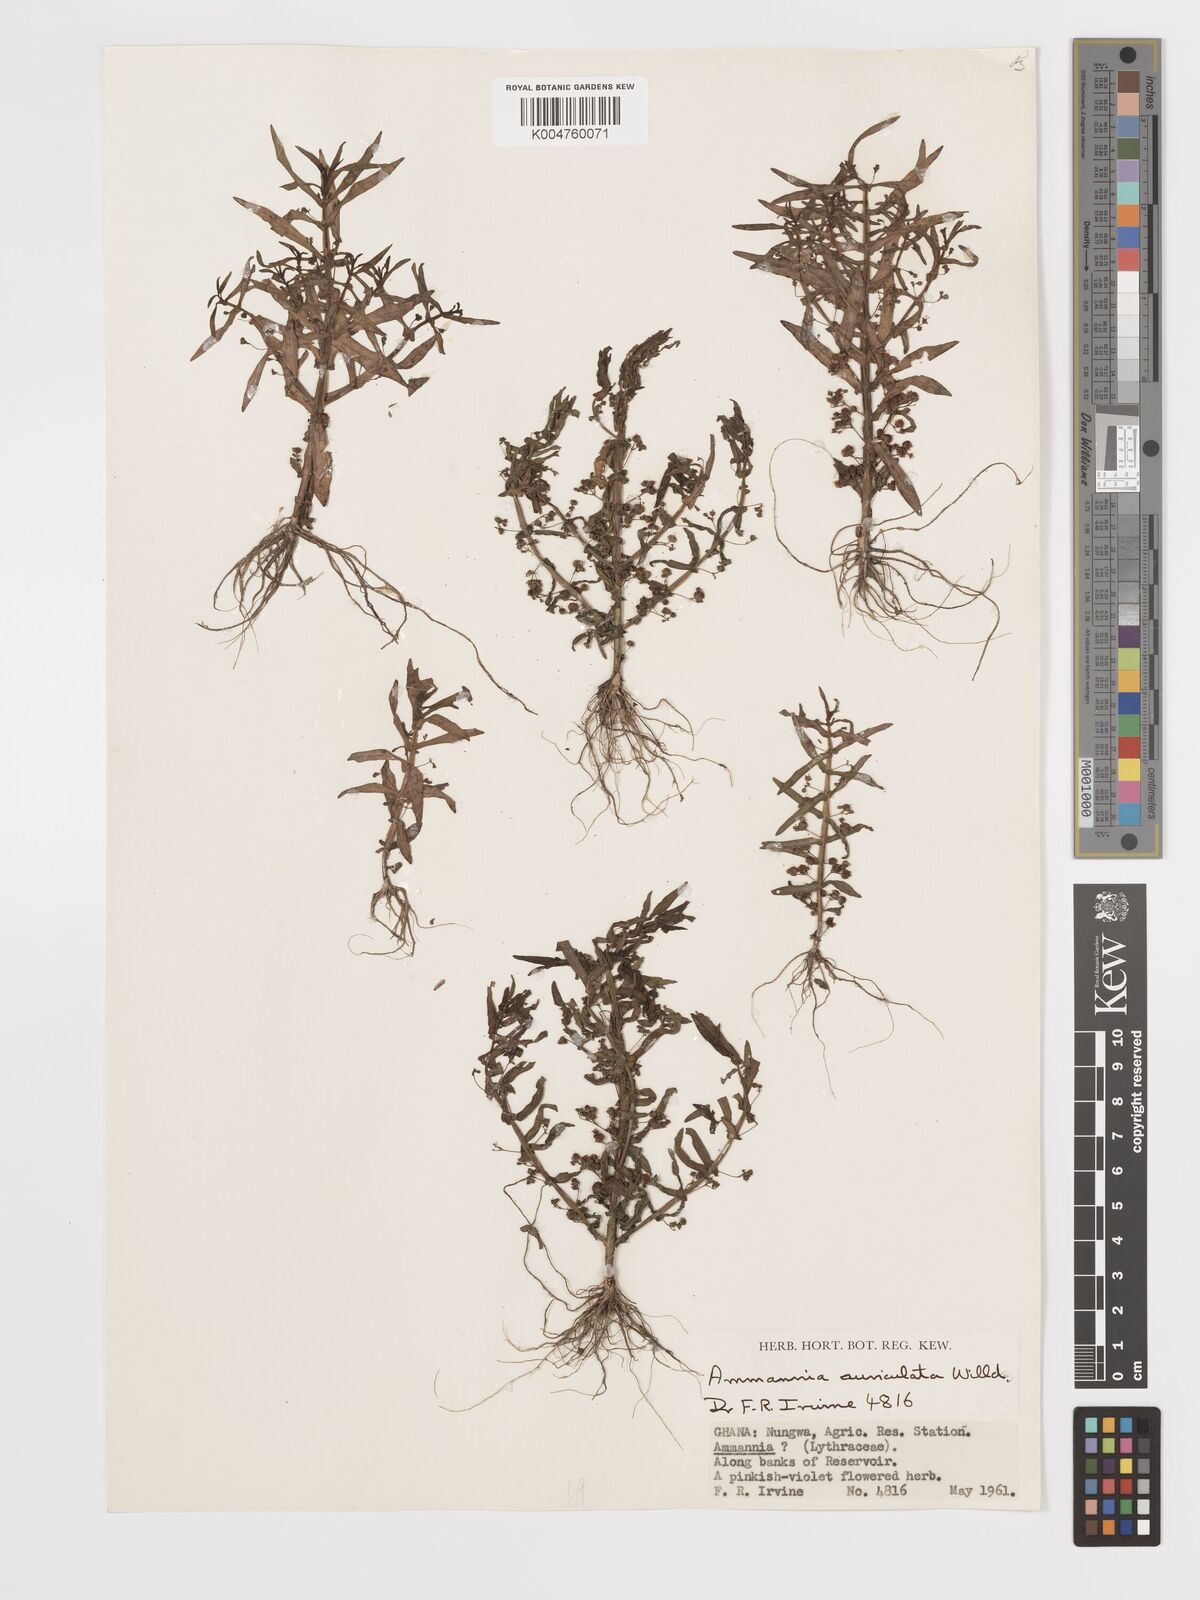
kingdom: Plantae
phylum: Tracheophyta
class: Magnoliopsida
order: Myrtales
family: Lythraceae
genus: Ammannia
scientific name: Ammannia auriculata
